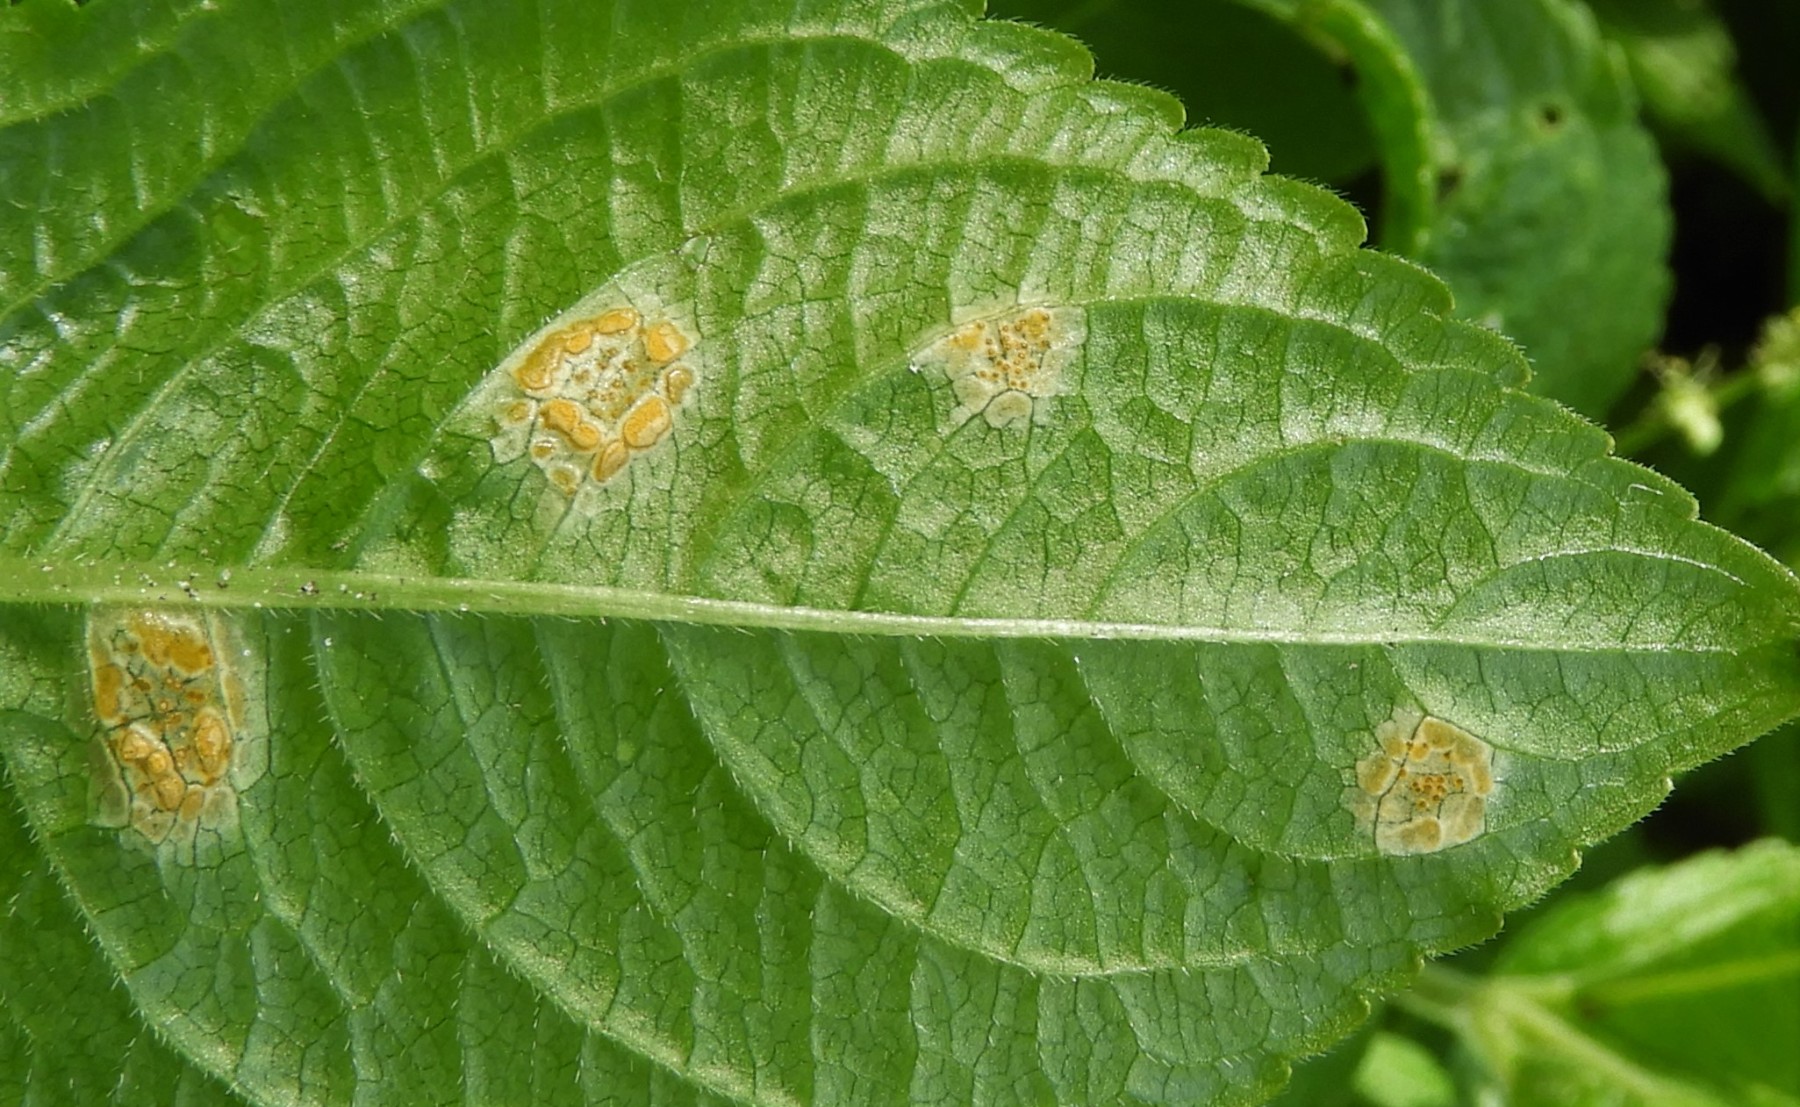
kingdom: Fungi
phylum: Basidiomycota
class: Pucciniomycetes
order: Pucciniales
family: Melampsoraceae
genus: Melampsora
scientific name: Melampsora populnea
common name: poppel-skorperust
